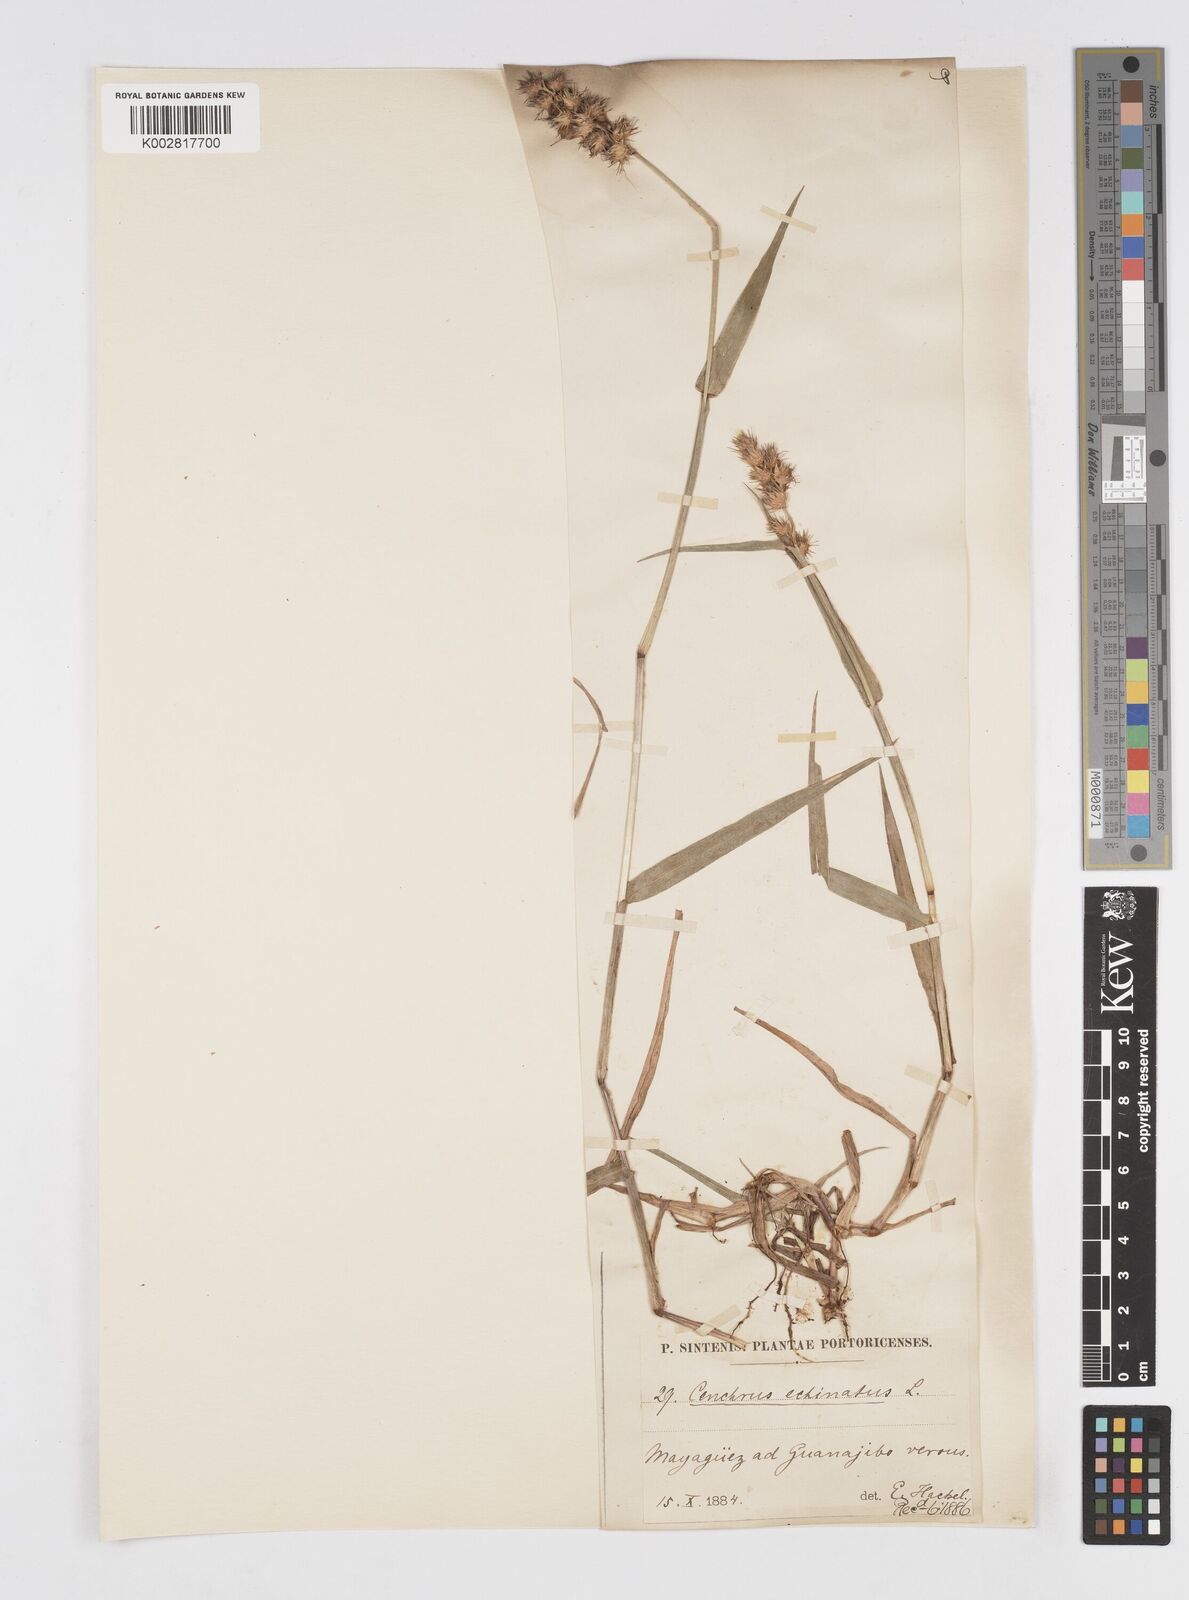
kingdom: Plantae
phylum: Tracheophyta
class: Liliopsida
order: Poales
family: Poaceae
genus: Cenchrus
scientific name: Cenchrus
